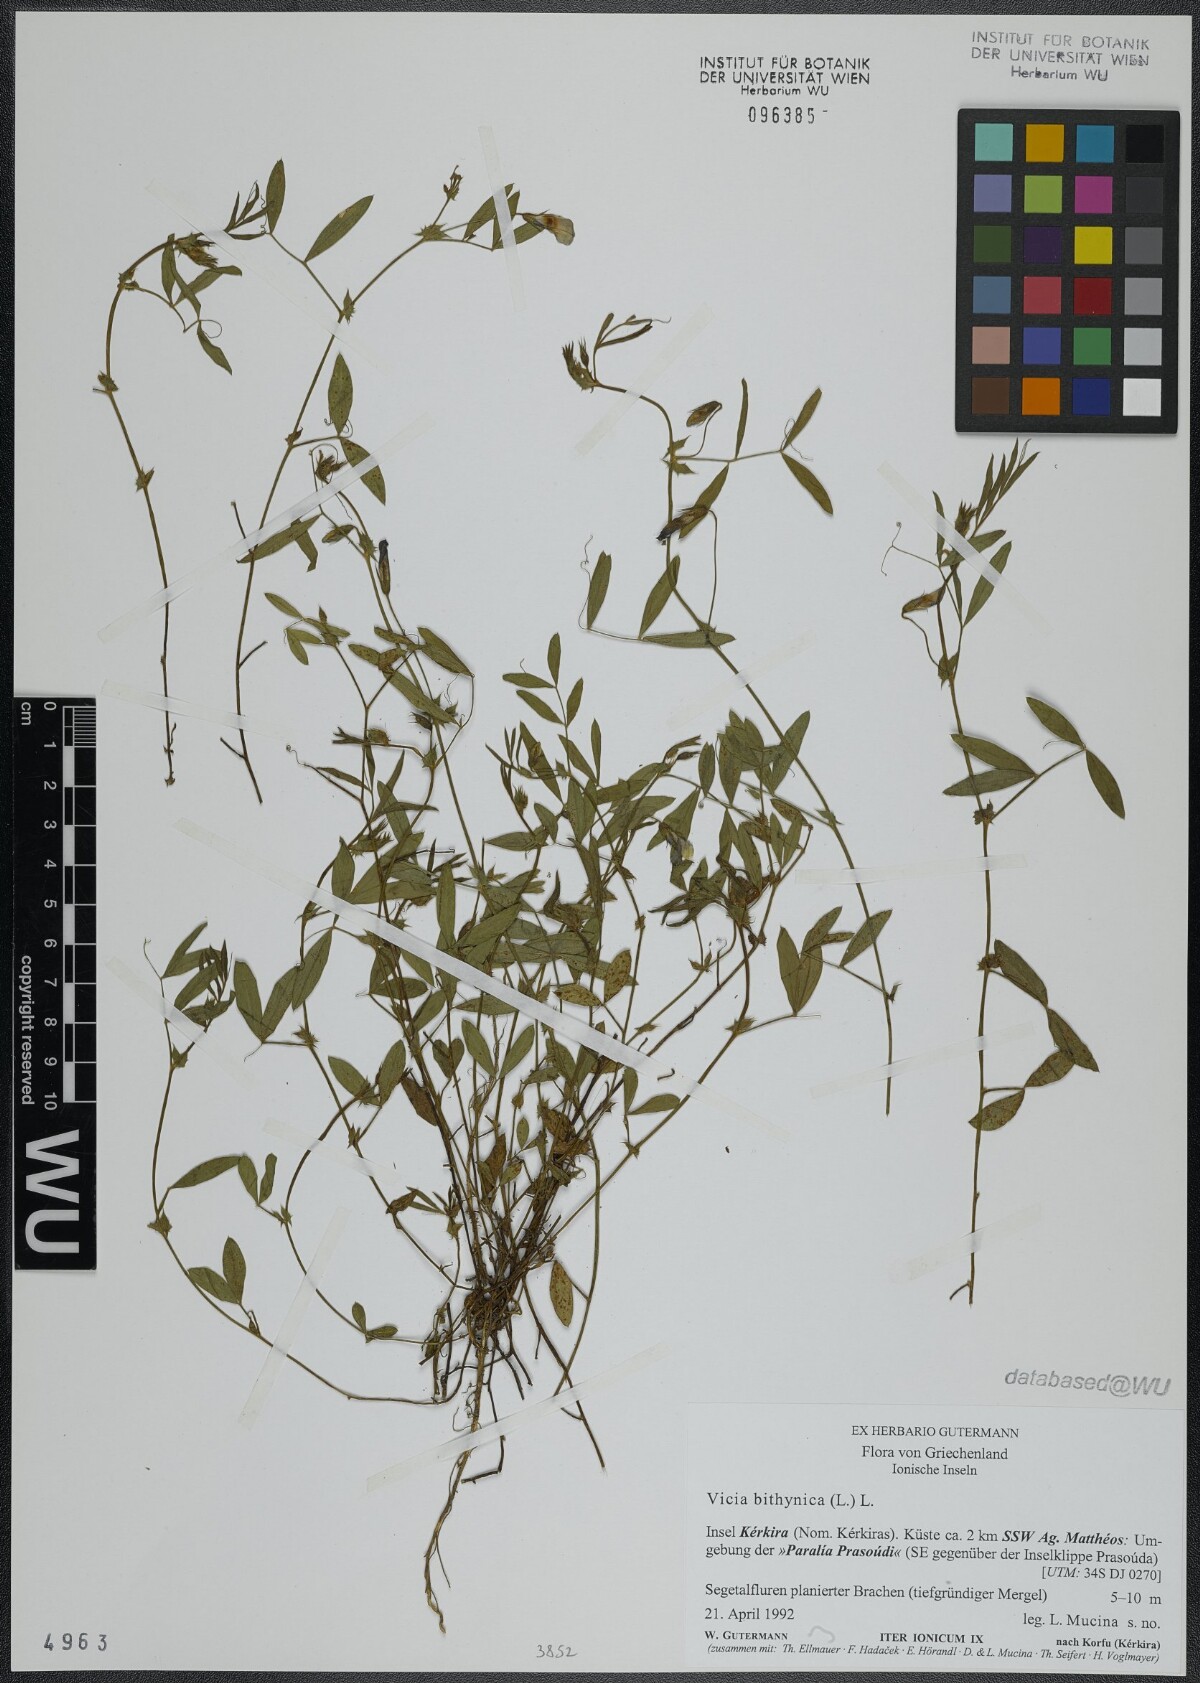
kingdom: Plantae
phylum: Tracheophyta
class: Magnoliopsida
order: Fabales
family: Fabaceae
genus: Vicia
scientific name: Vicia bithynica
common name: Bithynian vetch
